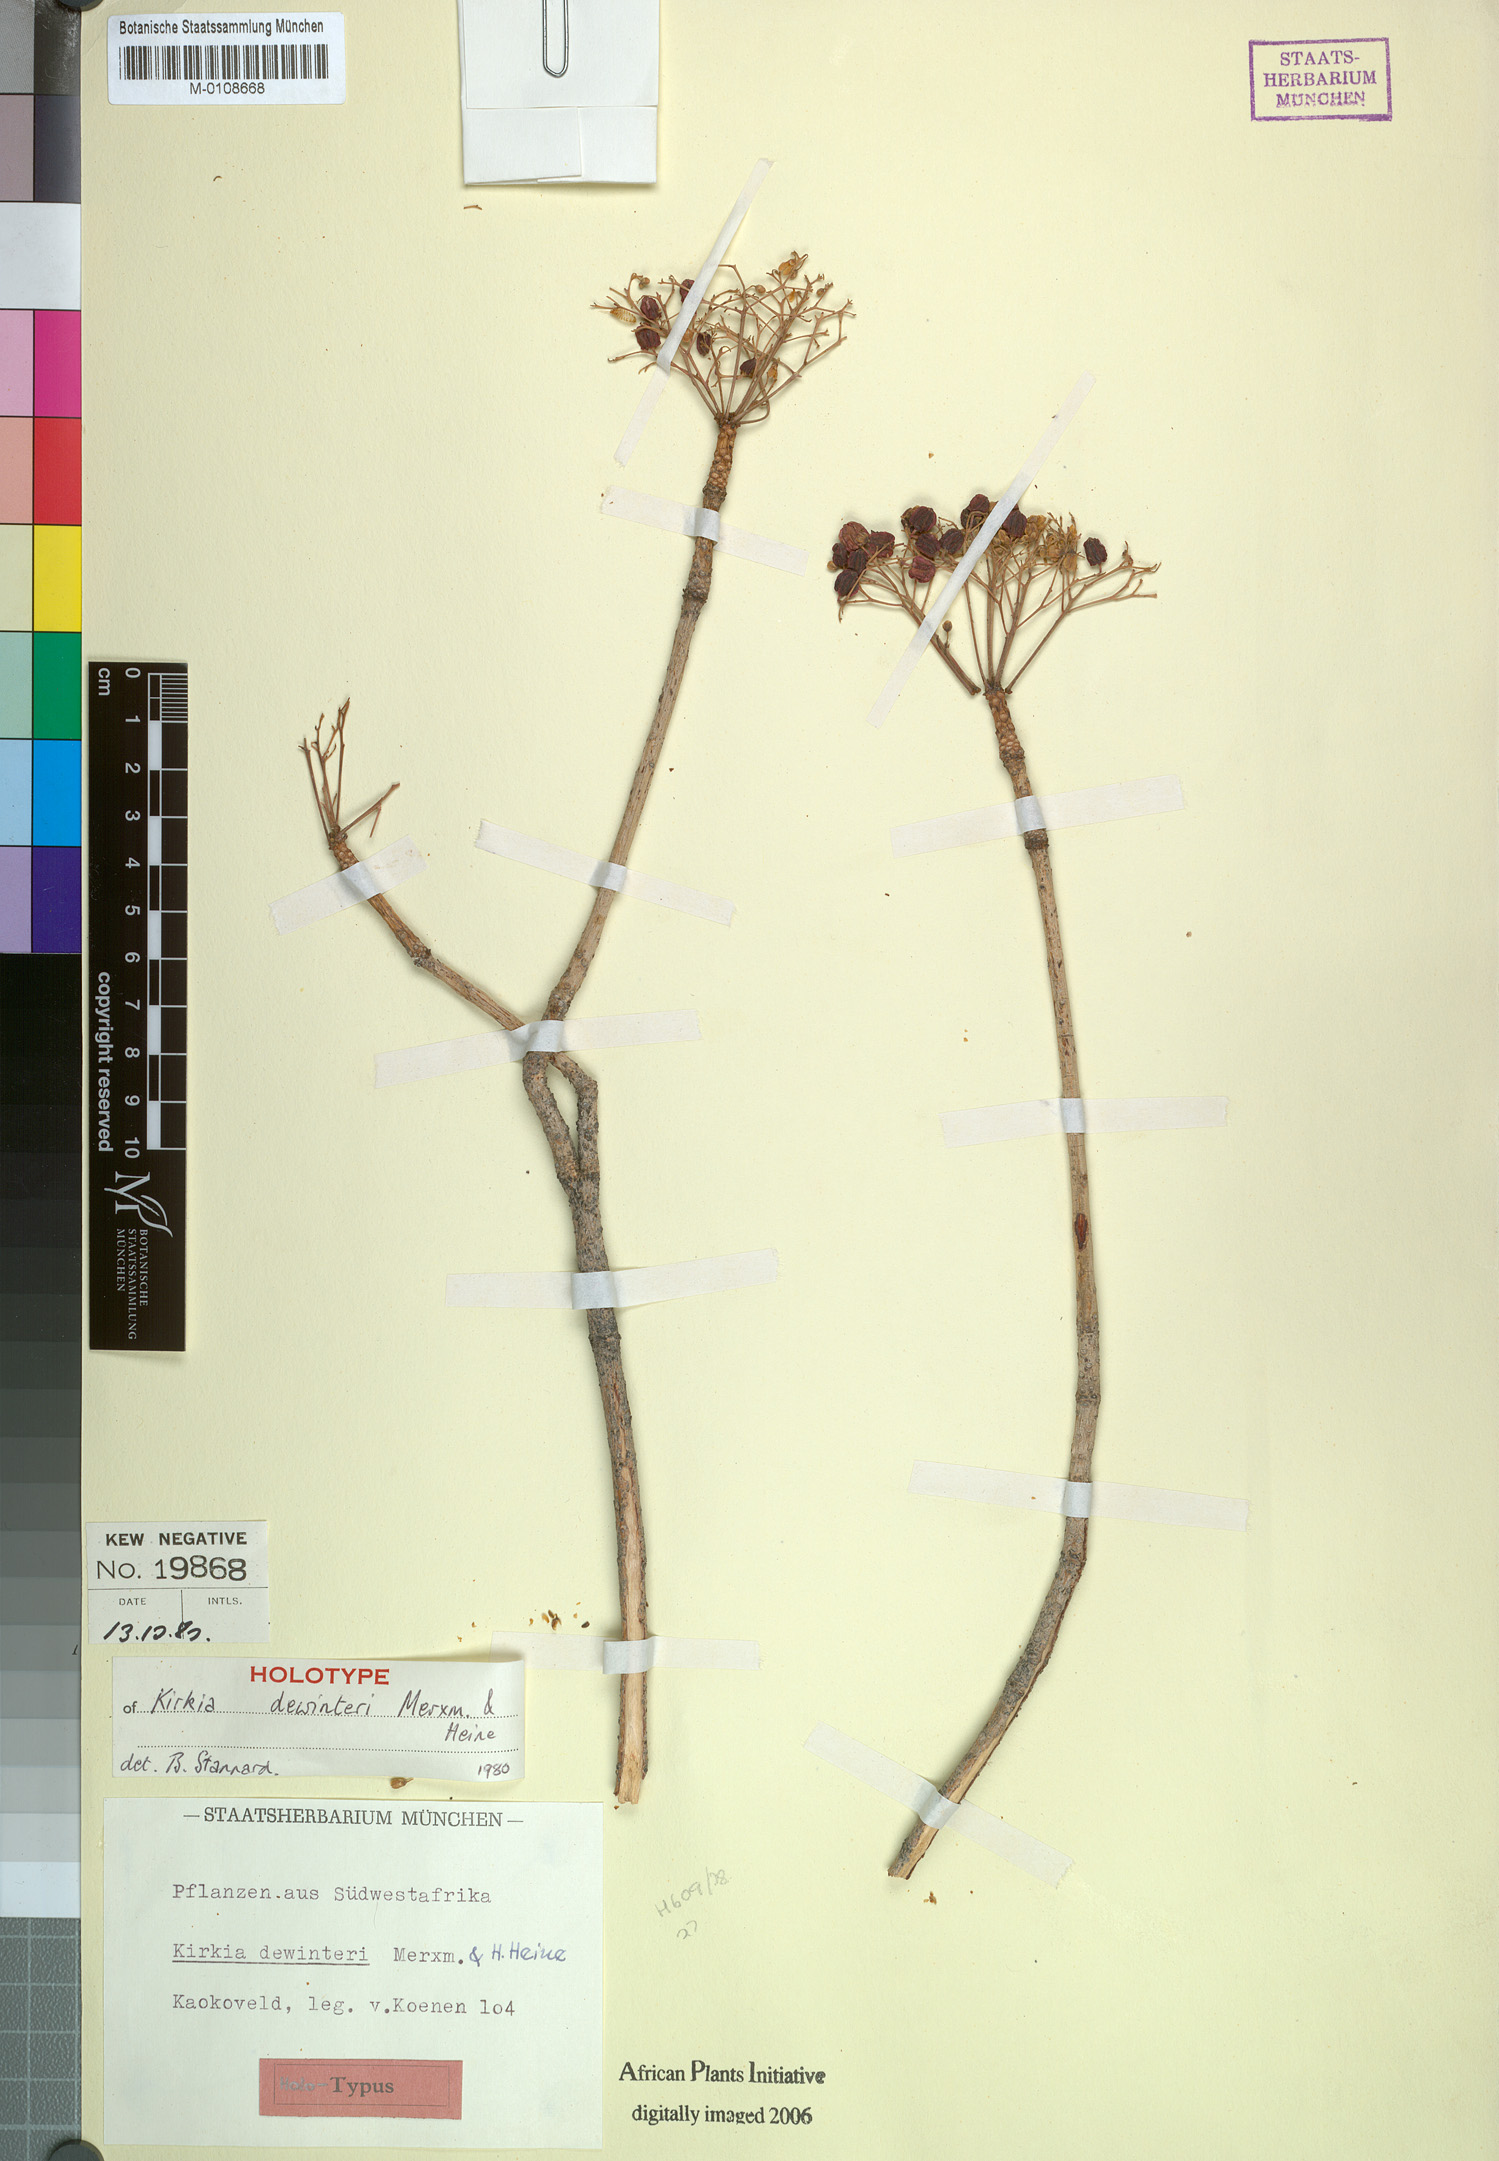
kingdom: Plantae
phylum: Tracheophyta
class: Magnoliopsida
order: Sapindales
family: Kirkiaceae
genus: Kirkia
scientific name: Kirkia dewinteri
